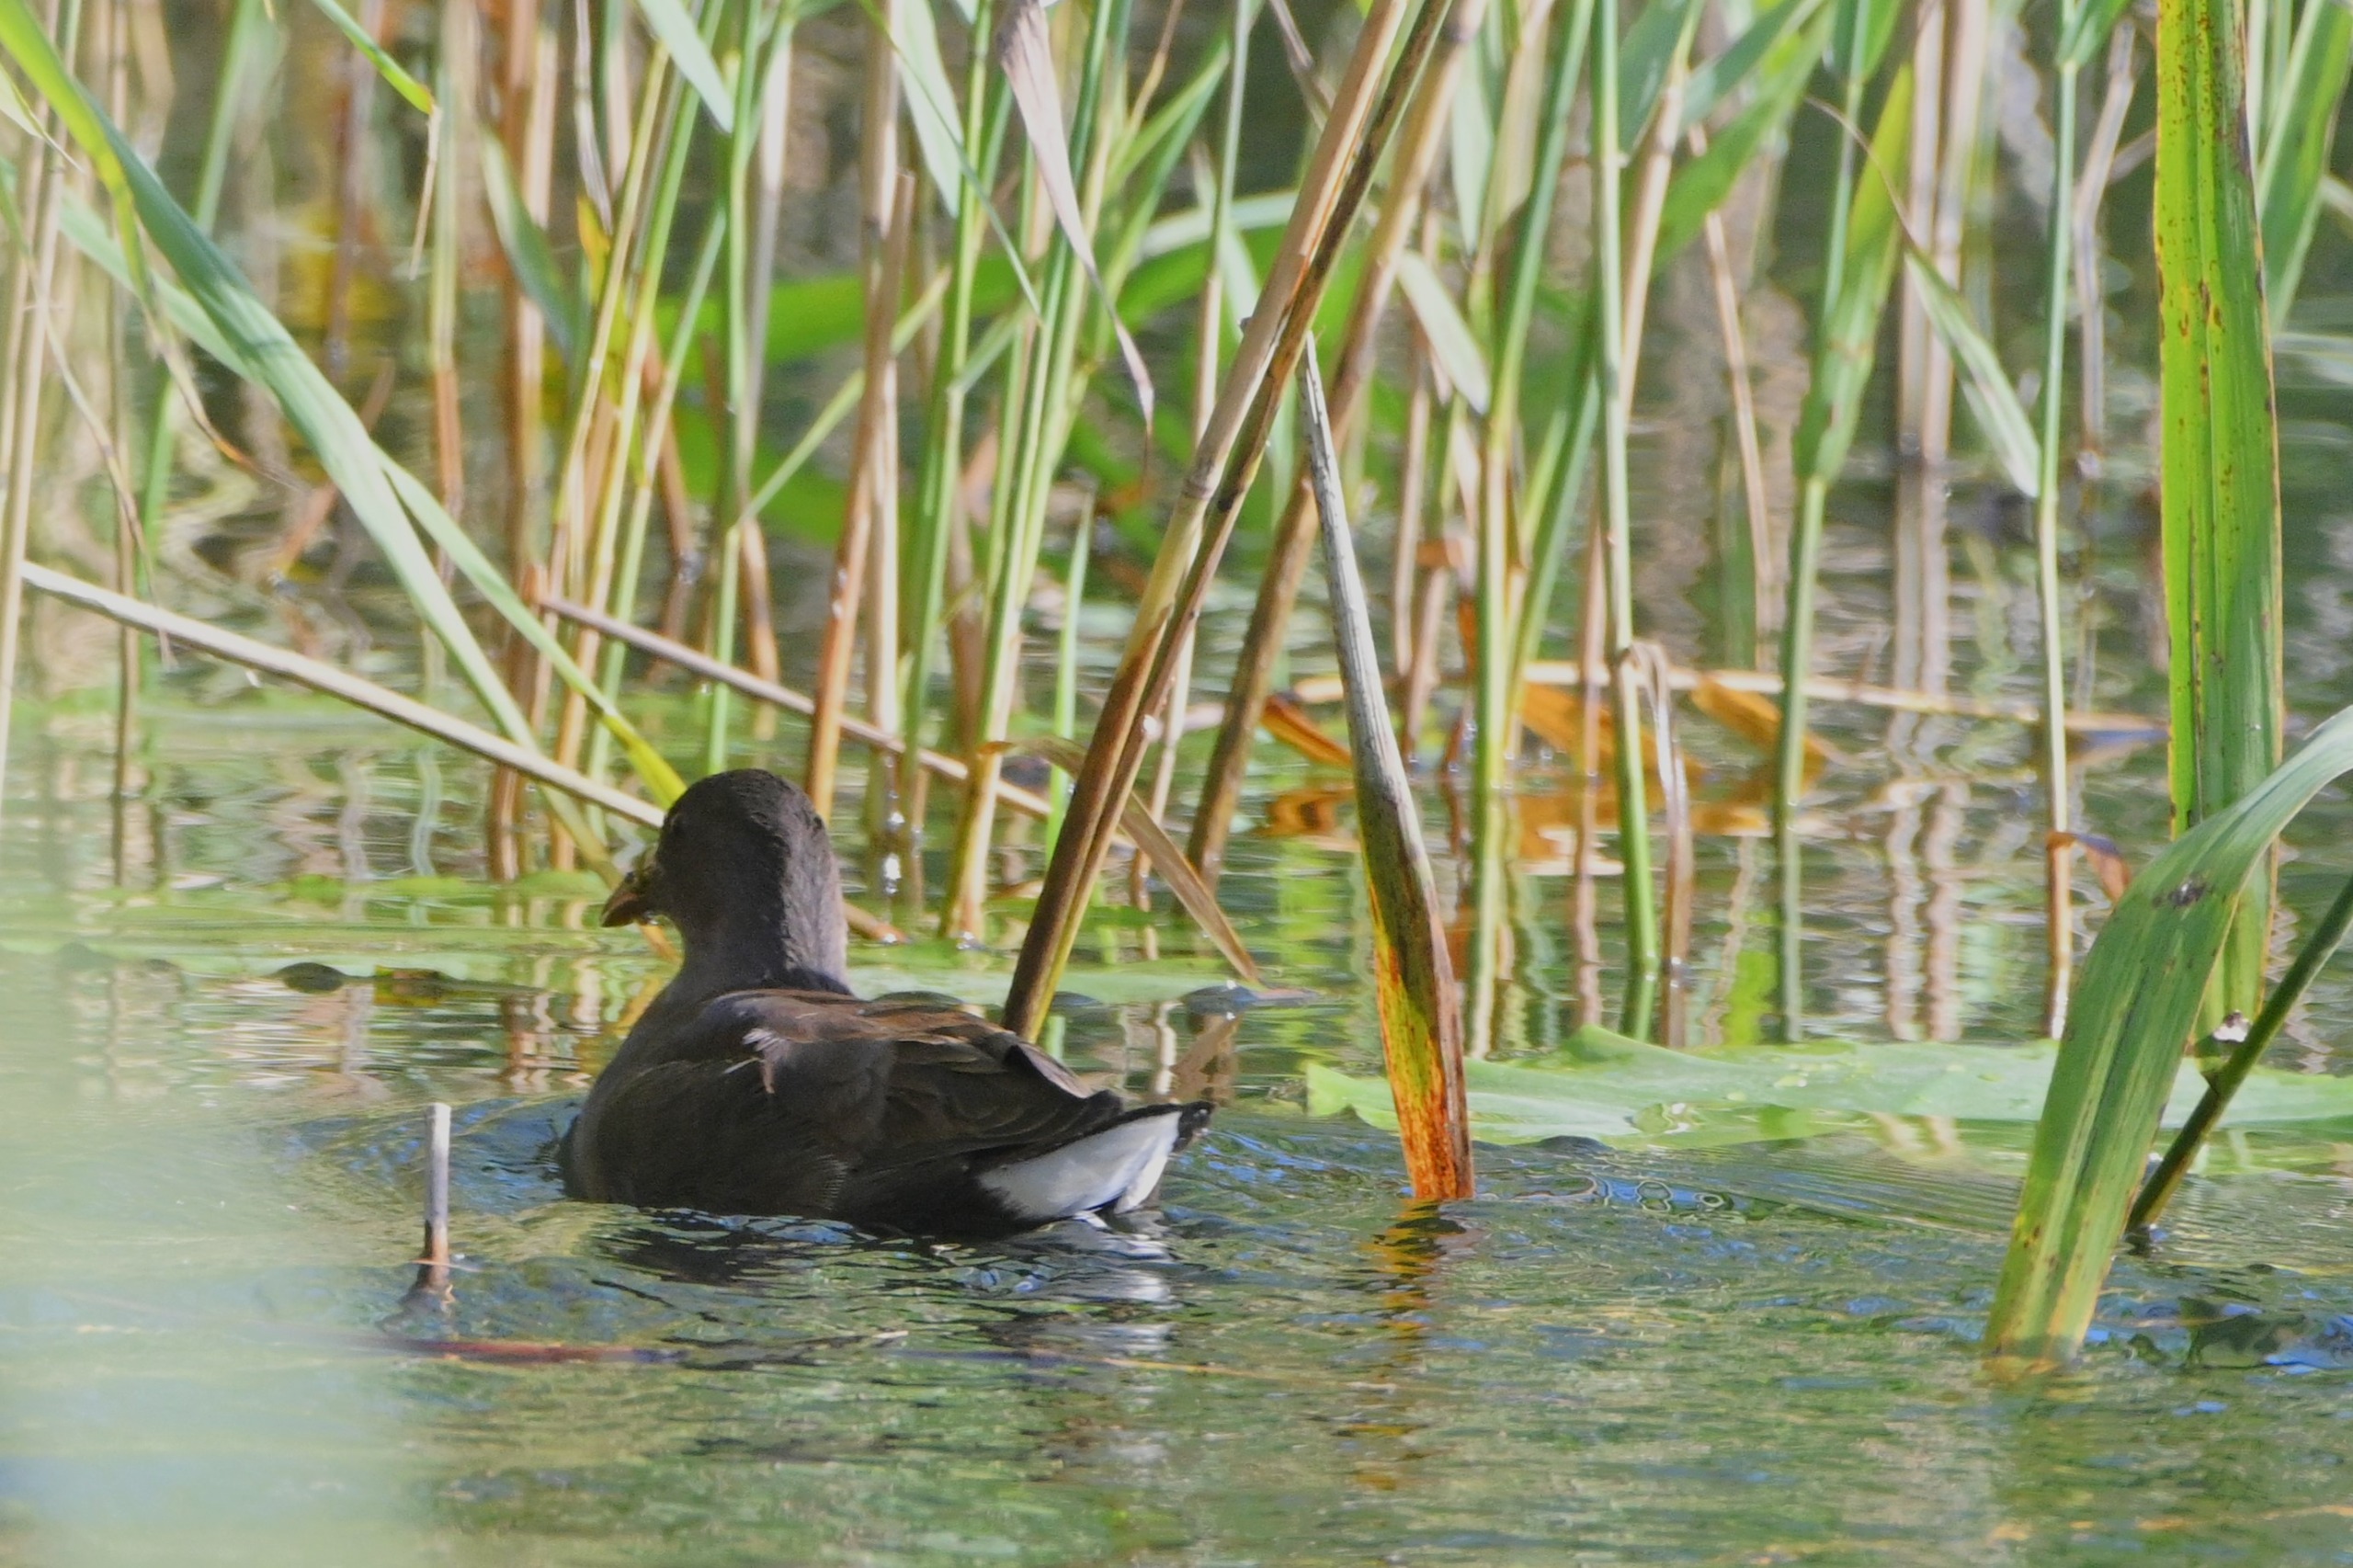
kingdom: Animalia
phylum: Chordata
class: Aves
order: Gruiformes
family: Rallidae
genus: Gallinula
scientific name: Gallinula chloropus
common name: Grønbenet rørhøne
